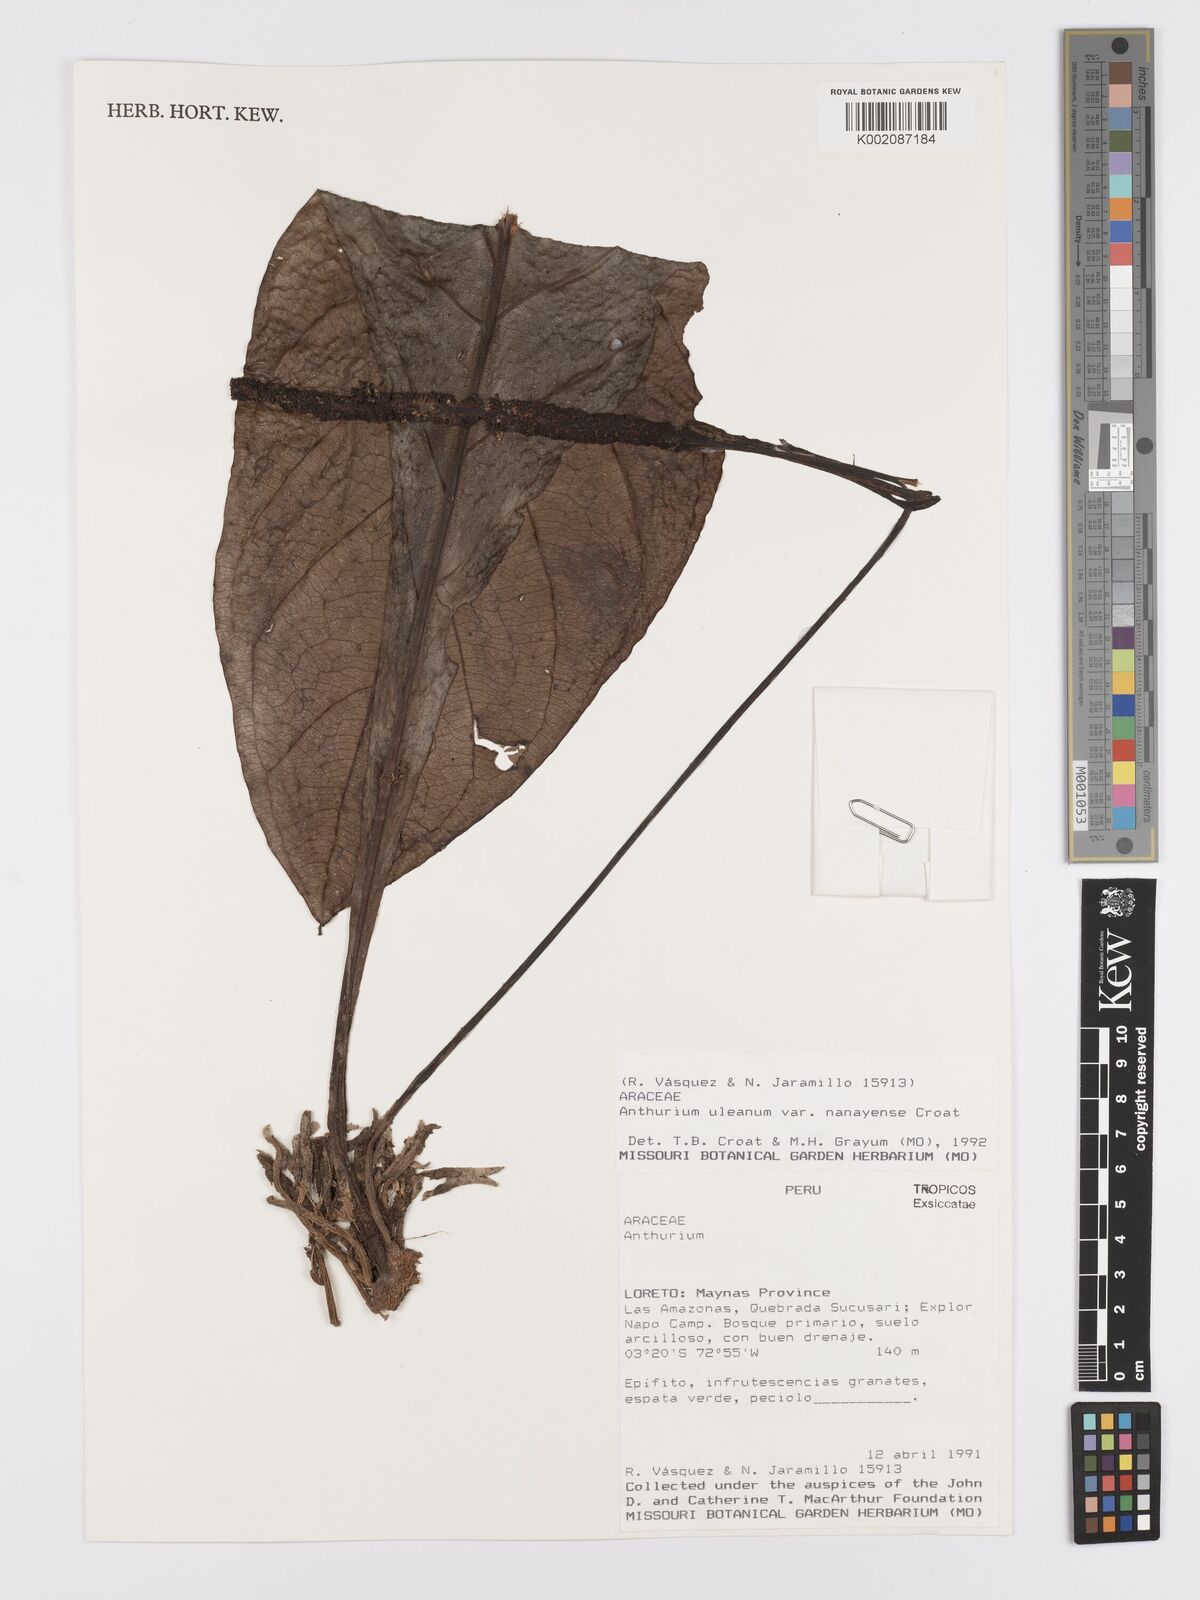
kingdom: Plantae
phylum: Tracheophyta
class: Liliopsida
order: Alismatales
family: Araceae
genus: Anthurium
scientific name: Anthurium uleanum
